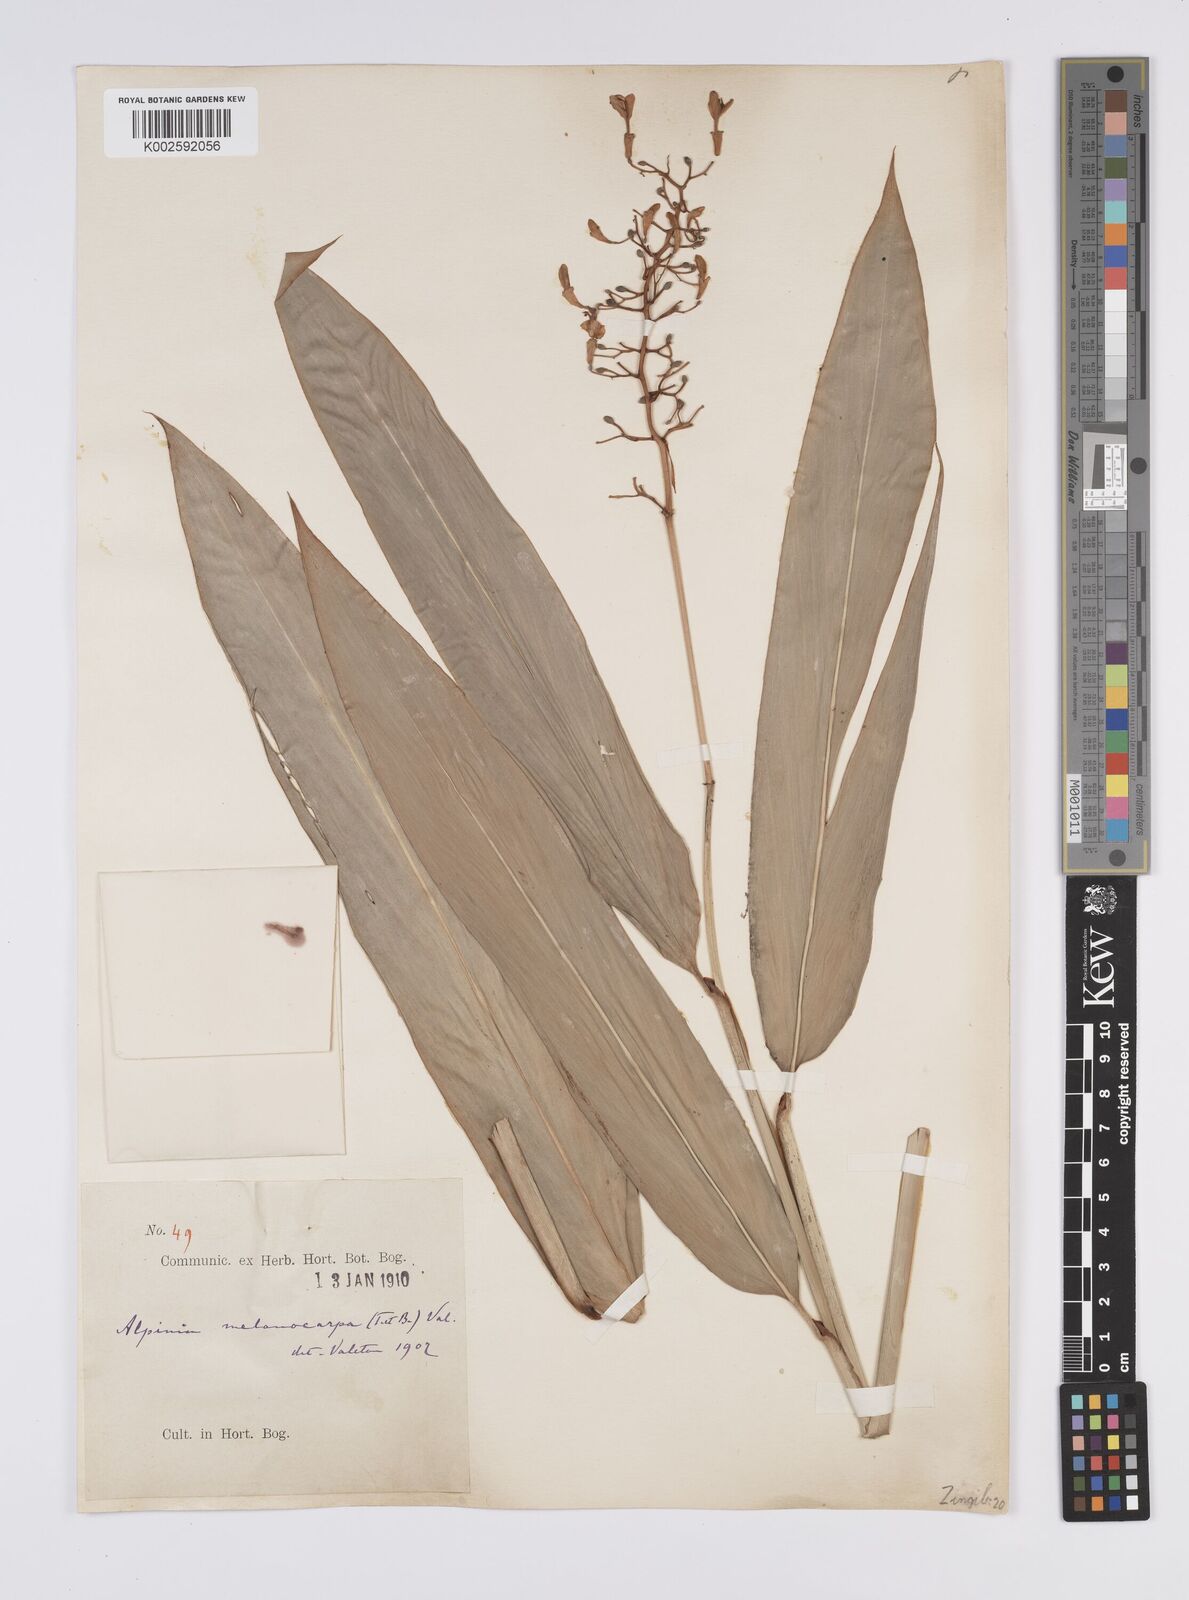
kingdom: Plantae
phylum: Tracheophyta
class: Liliopsida
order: Zingiberales
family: Zingiberaceae
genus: Alpinia
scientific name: Alpinia aquatica
